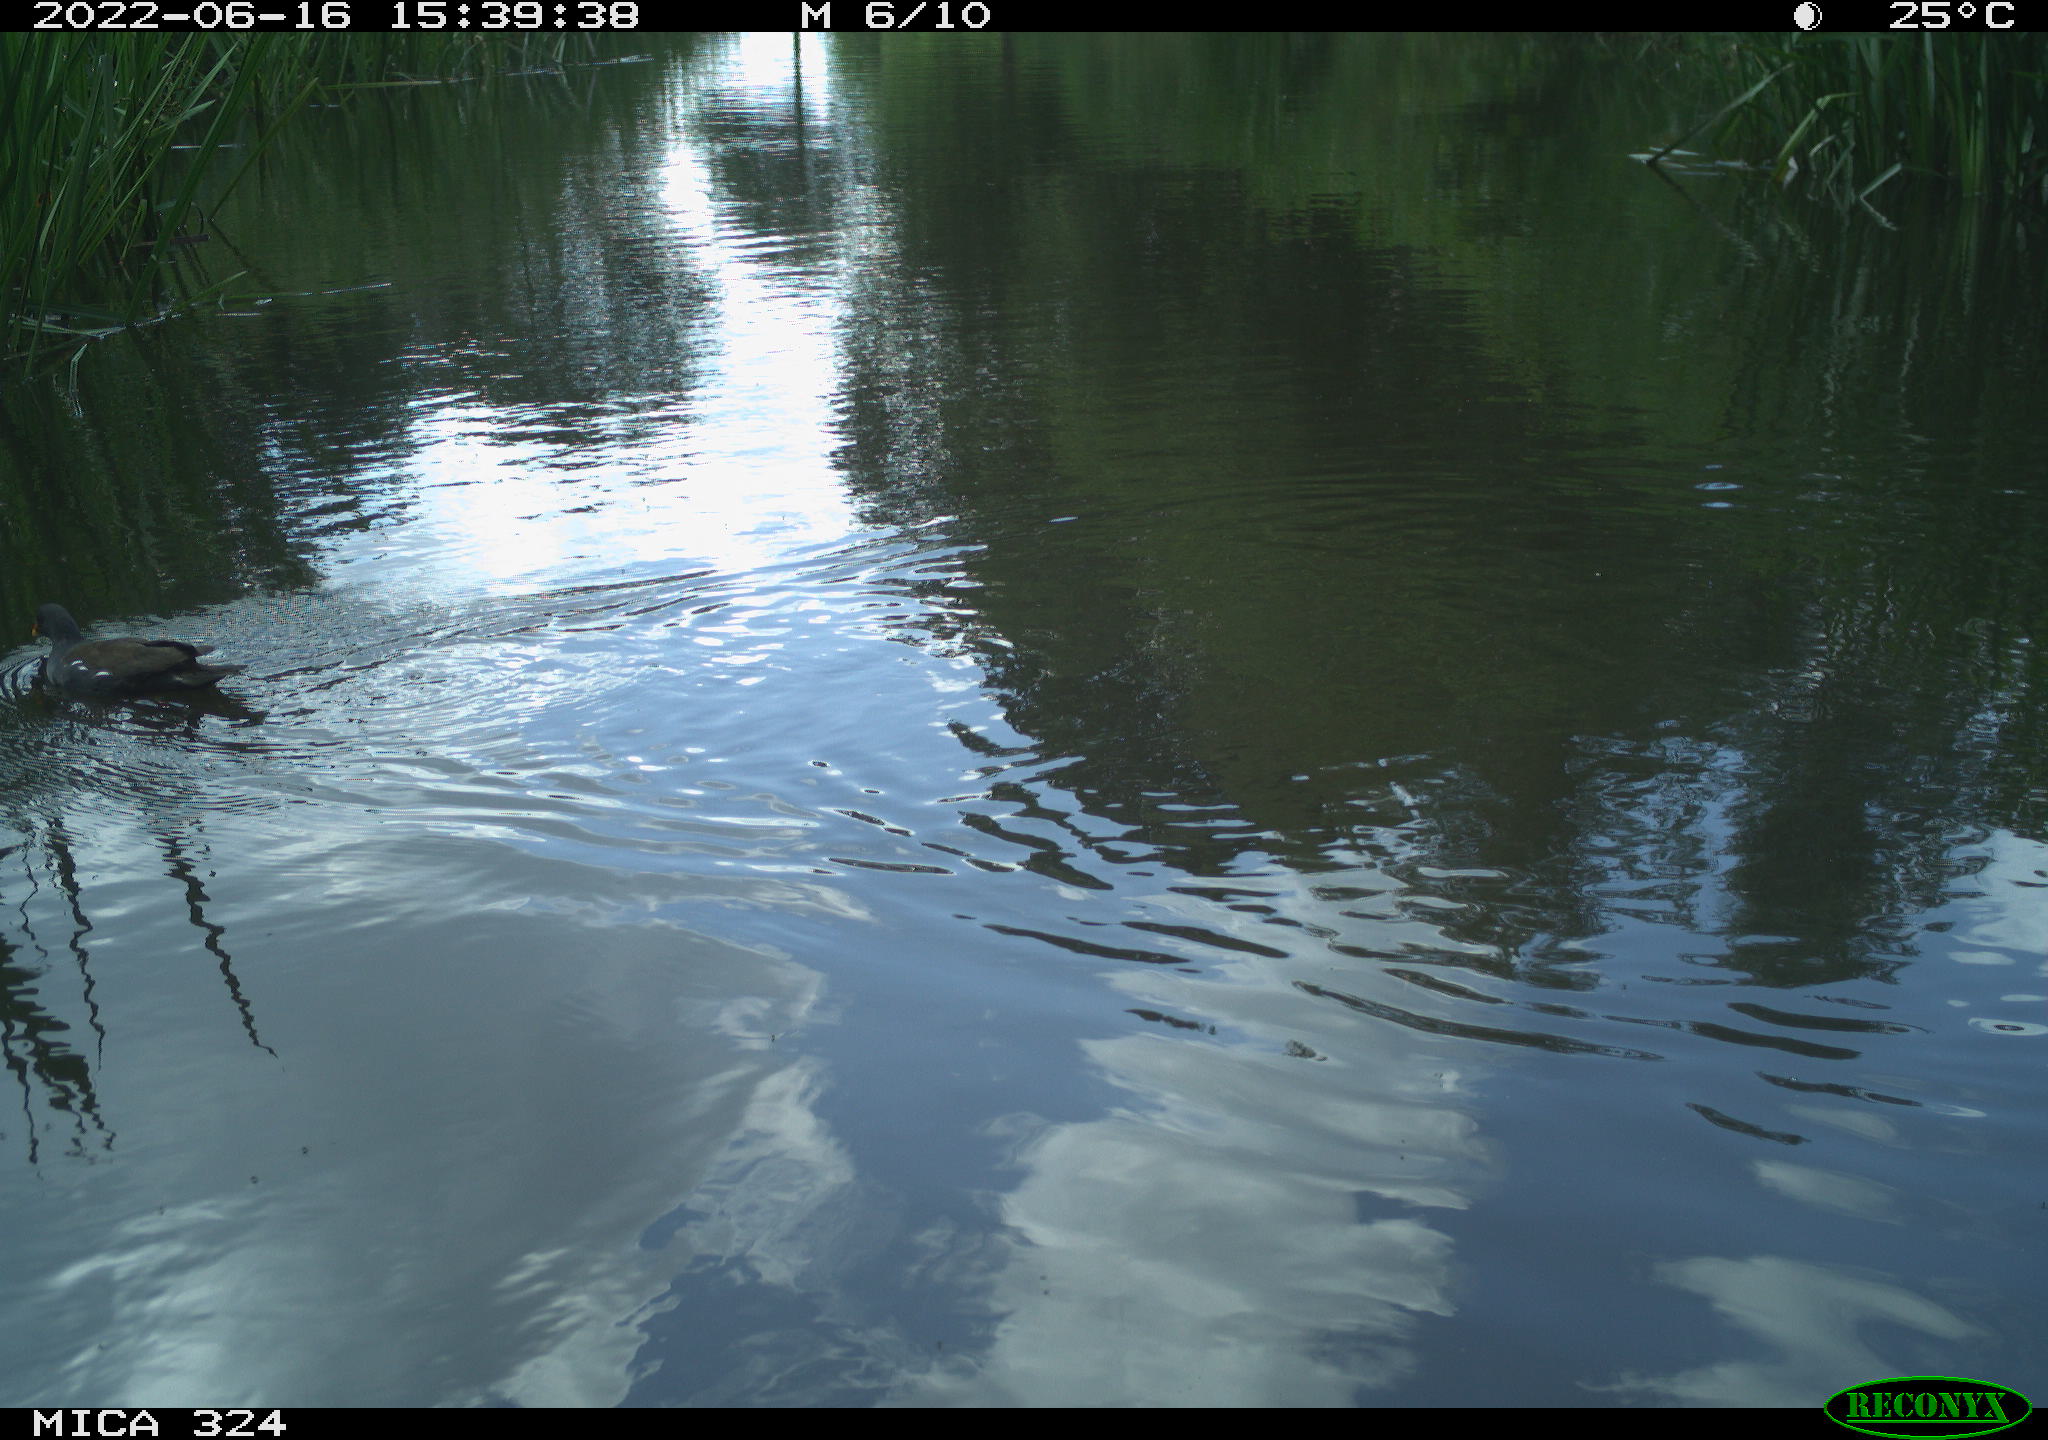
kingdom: Animalia
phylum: Chordata
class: Aves
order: Gruiformes
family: Rallidae
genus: Gallinula
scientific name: Gallinula chloropus
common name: Common moorhen
